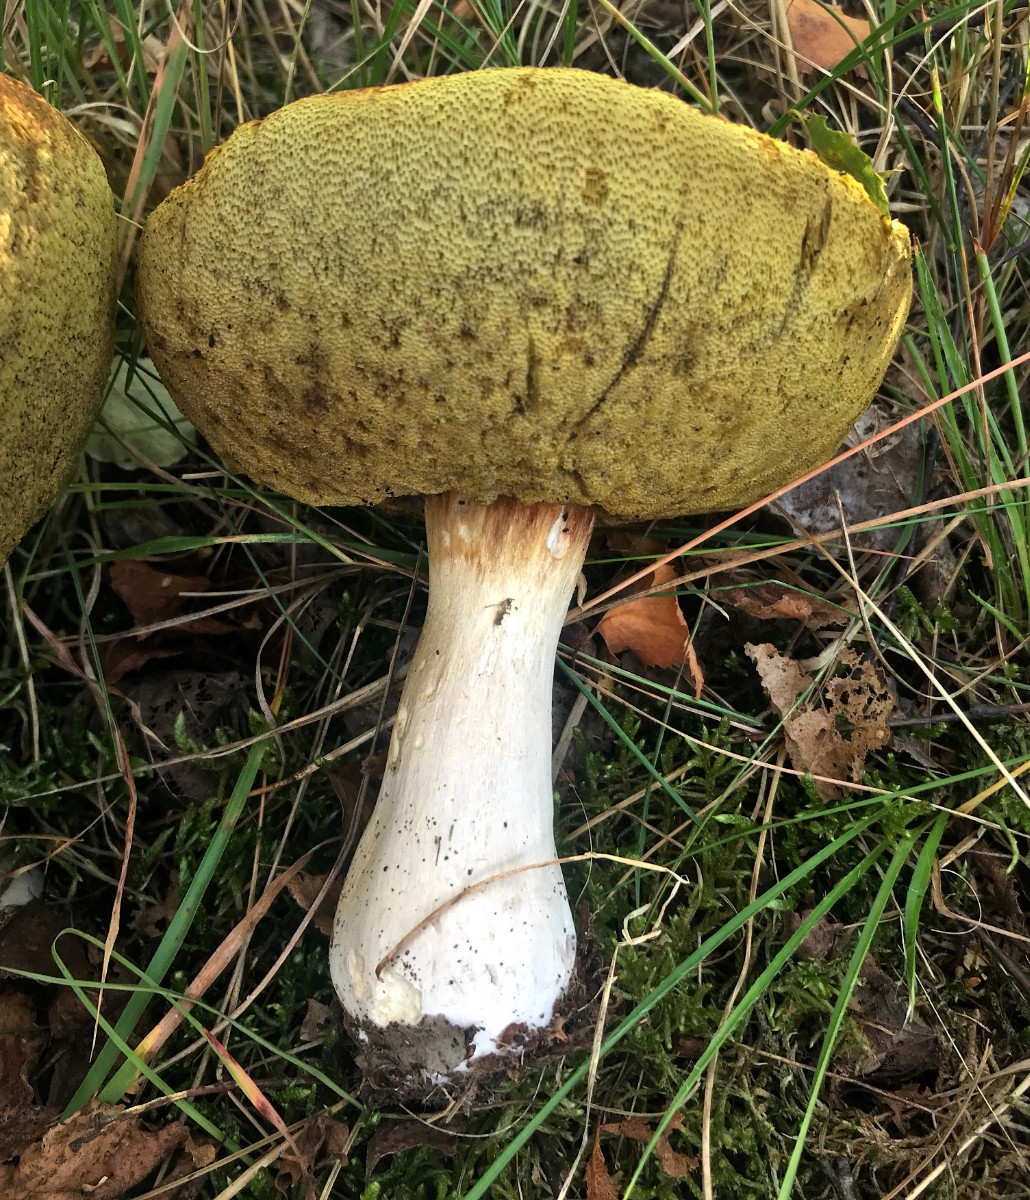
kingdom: Fungi
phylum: Basidiomycota
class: Agaricomycetes
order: Boletales
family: Boletaceae
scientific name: Boletaceae
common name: rørhatfamilien
